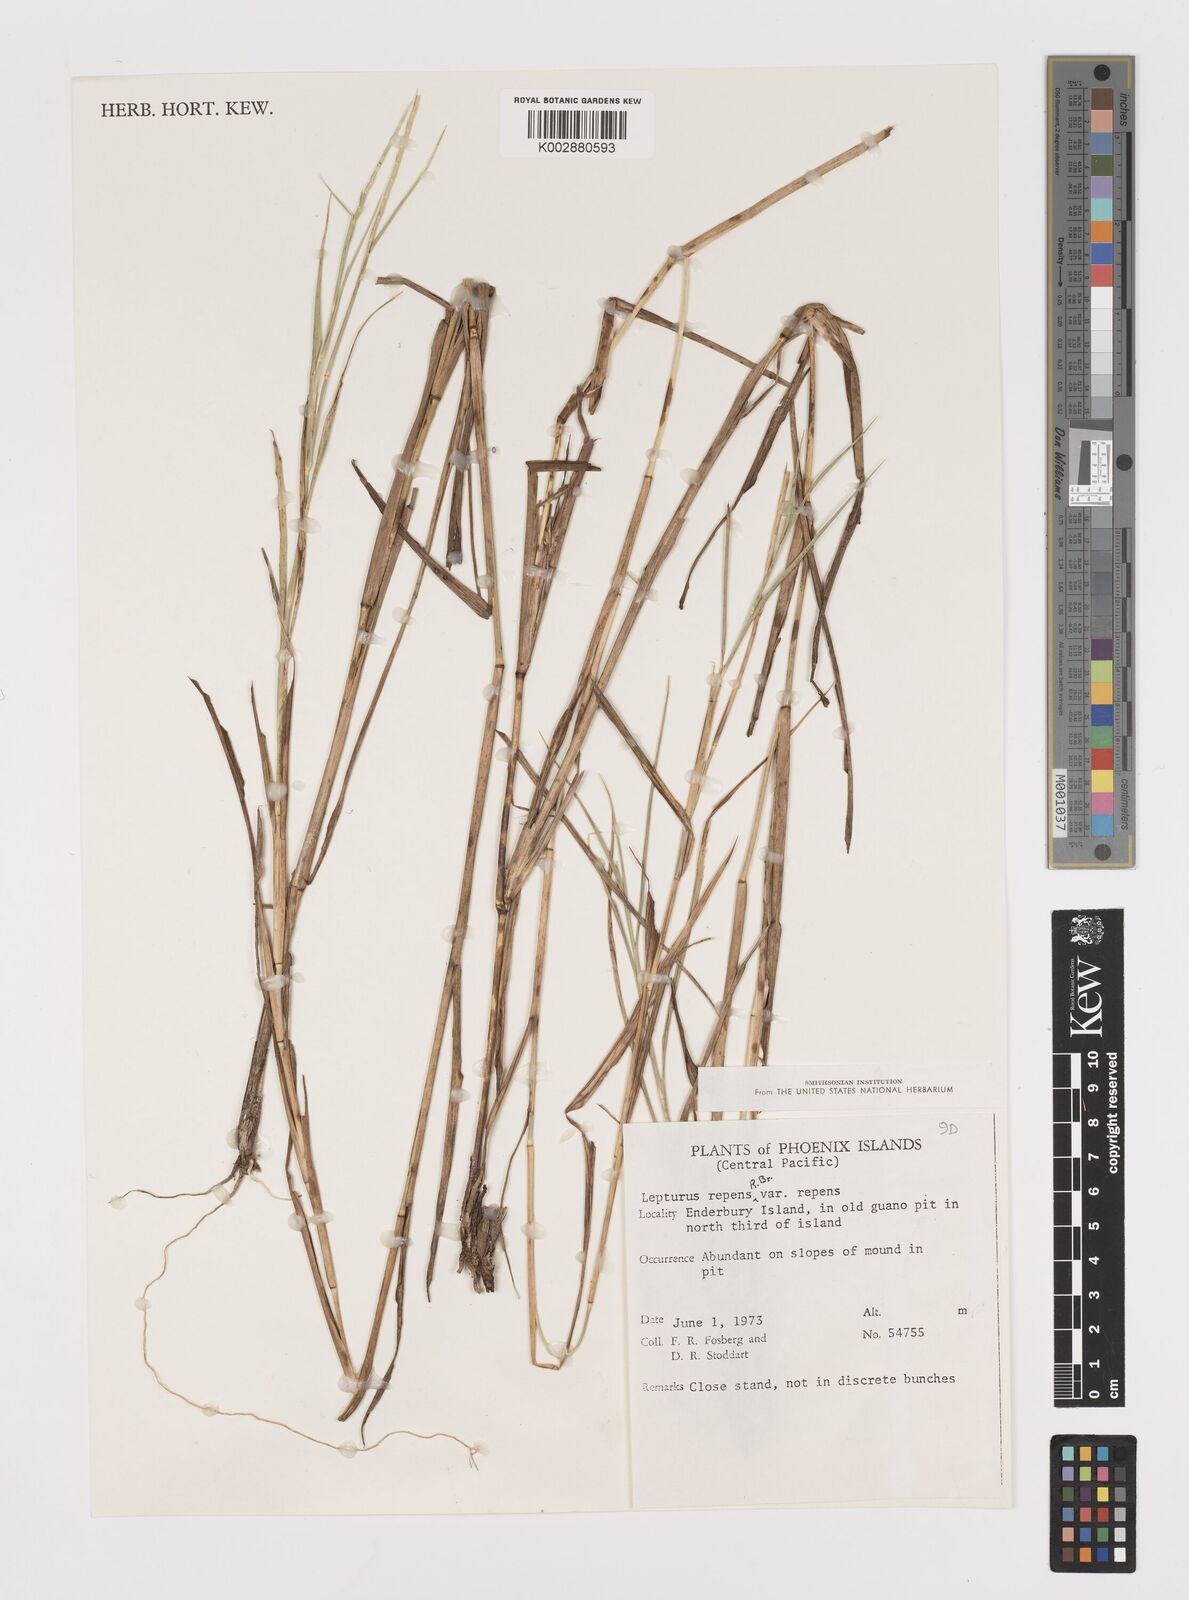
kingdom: Plantae
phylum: Tracheophyta
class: Liliopsida
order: Poales
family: Poaceae
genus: Lepturus
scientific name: Lepturus repens
